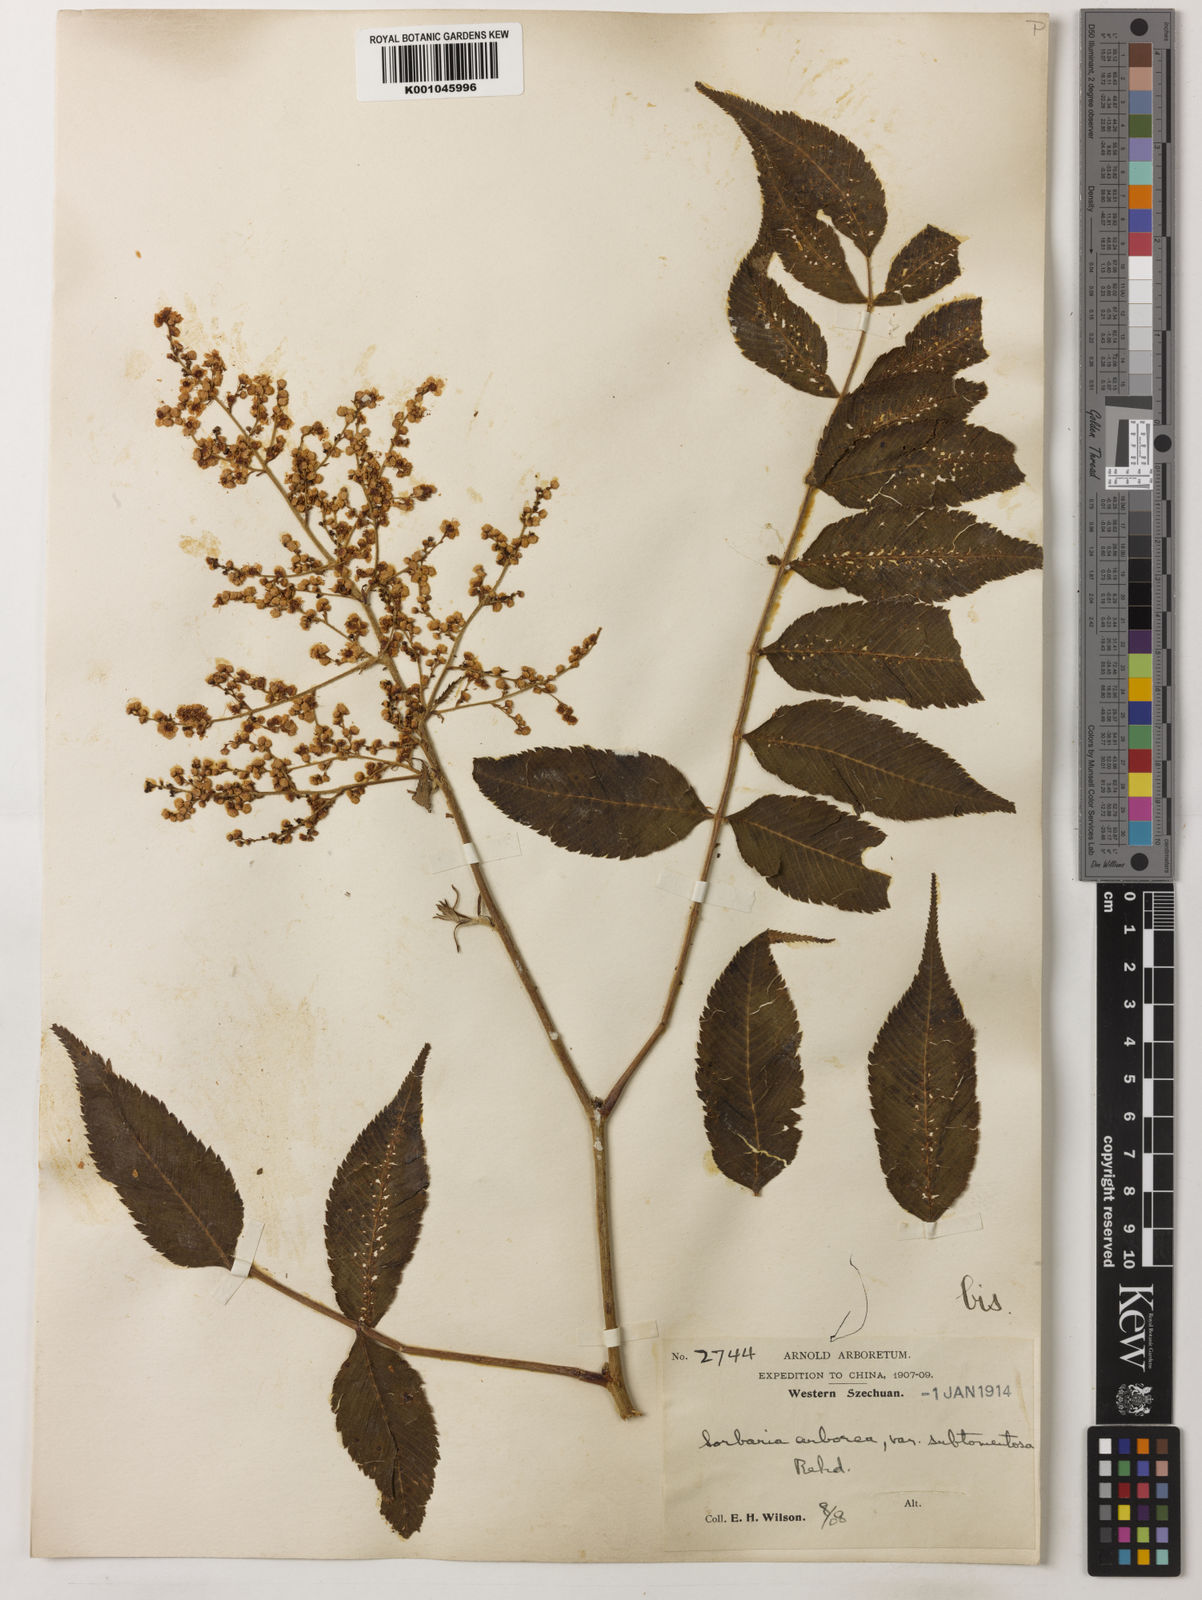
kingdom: Plantae
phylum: Tracheophyta
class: Magnoliopsida
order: Rosales
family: Rosaceae
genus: Sorbaria
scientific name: Sorbaria kirilowii
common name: Chinese sorbaria
